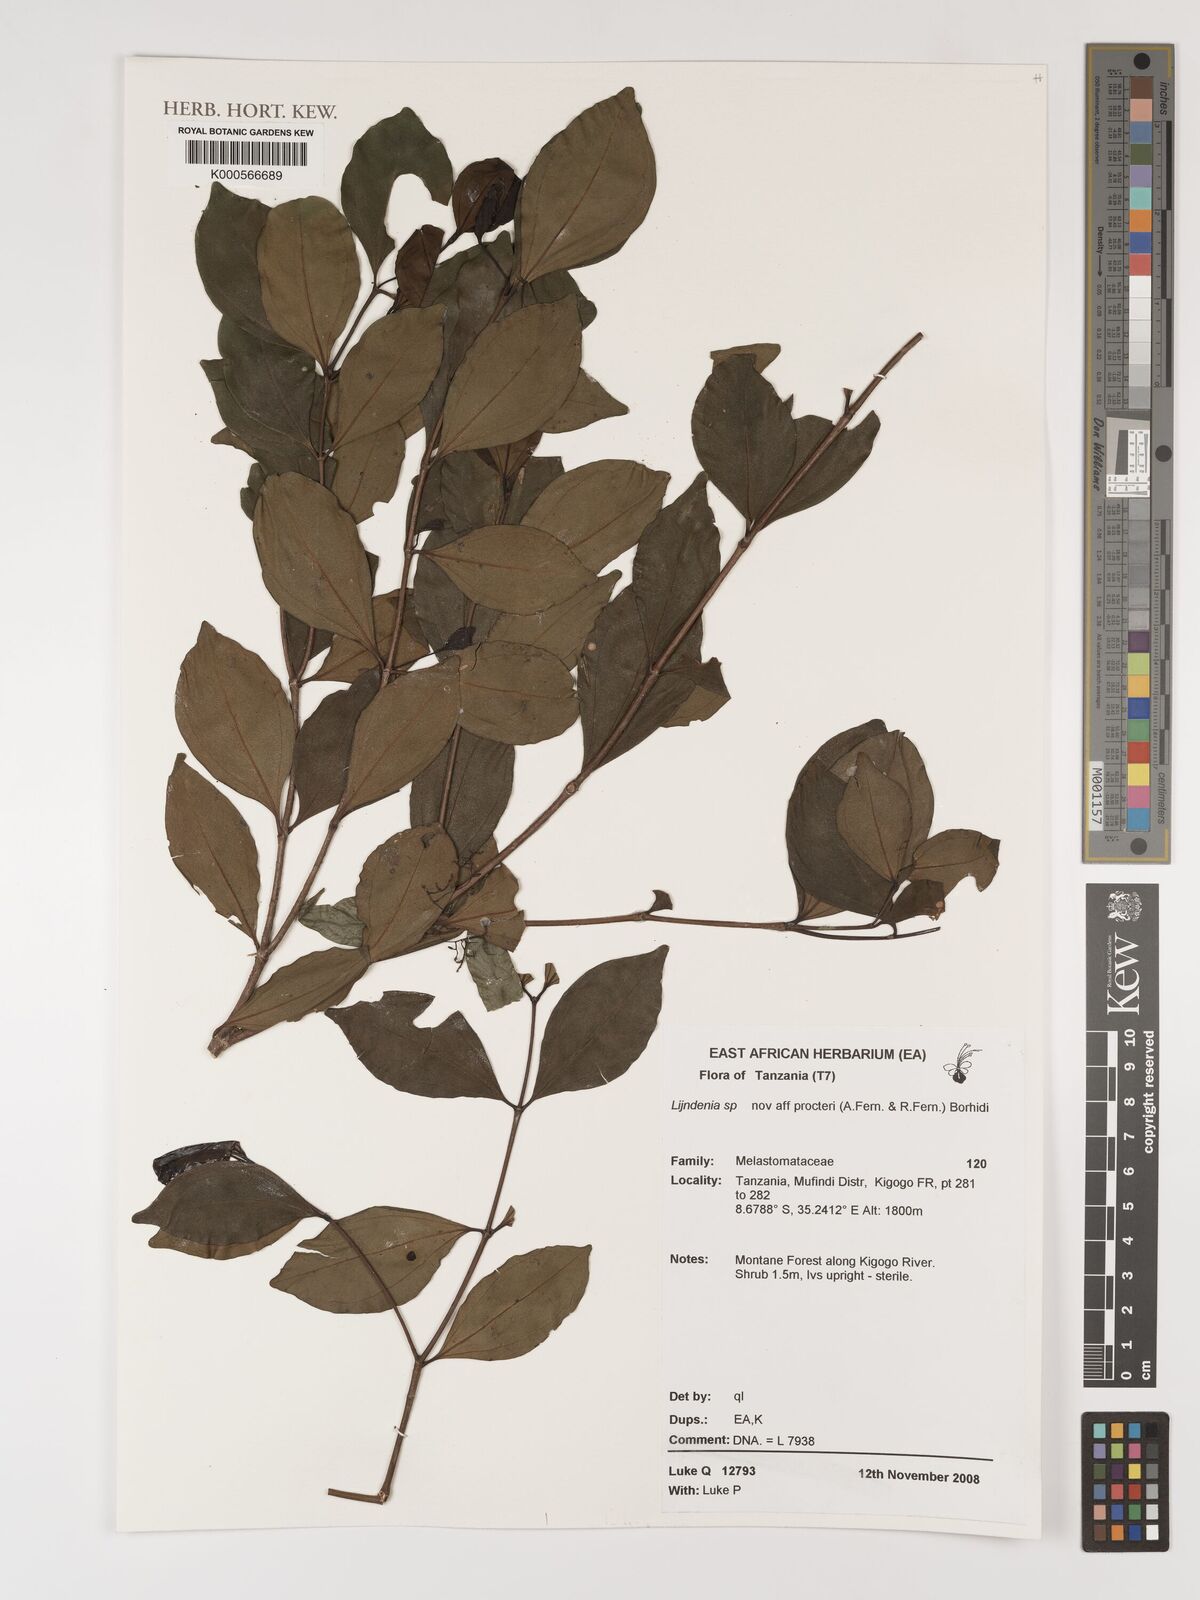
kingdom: Plantae
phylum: Tracheophyta
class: Magnoliopsida
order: Myrtales
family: Melastomataceae
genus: Lijndenia
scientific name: Lijndenia procteri
